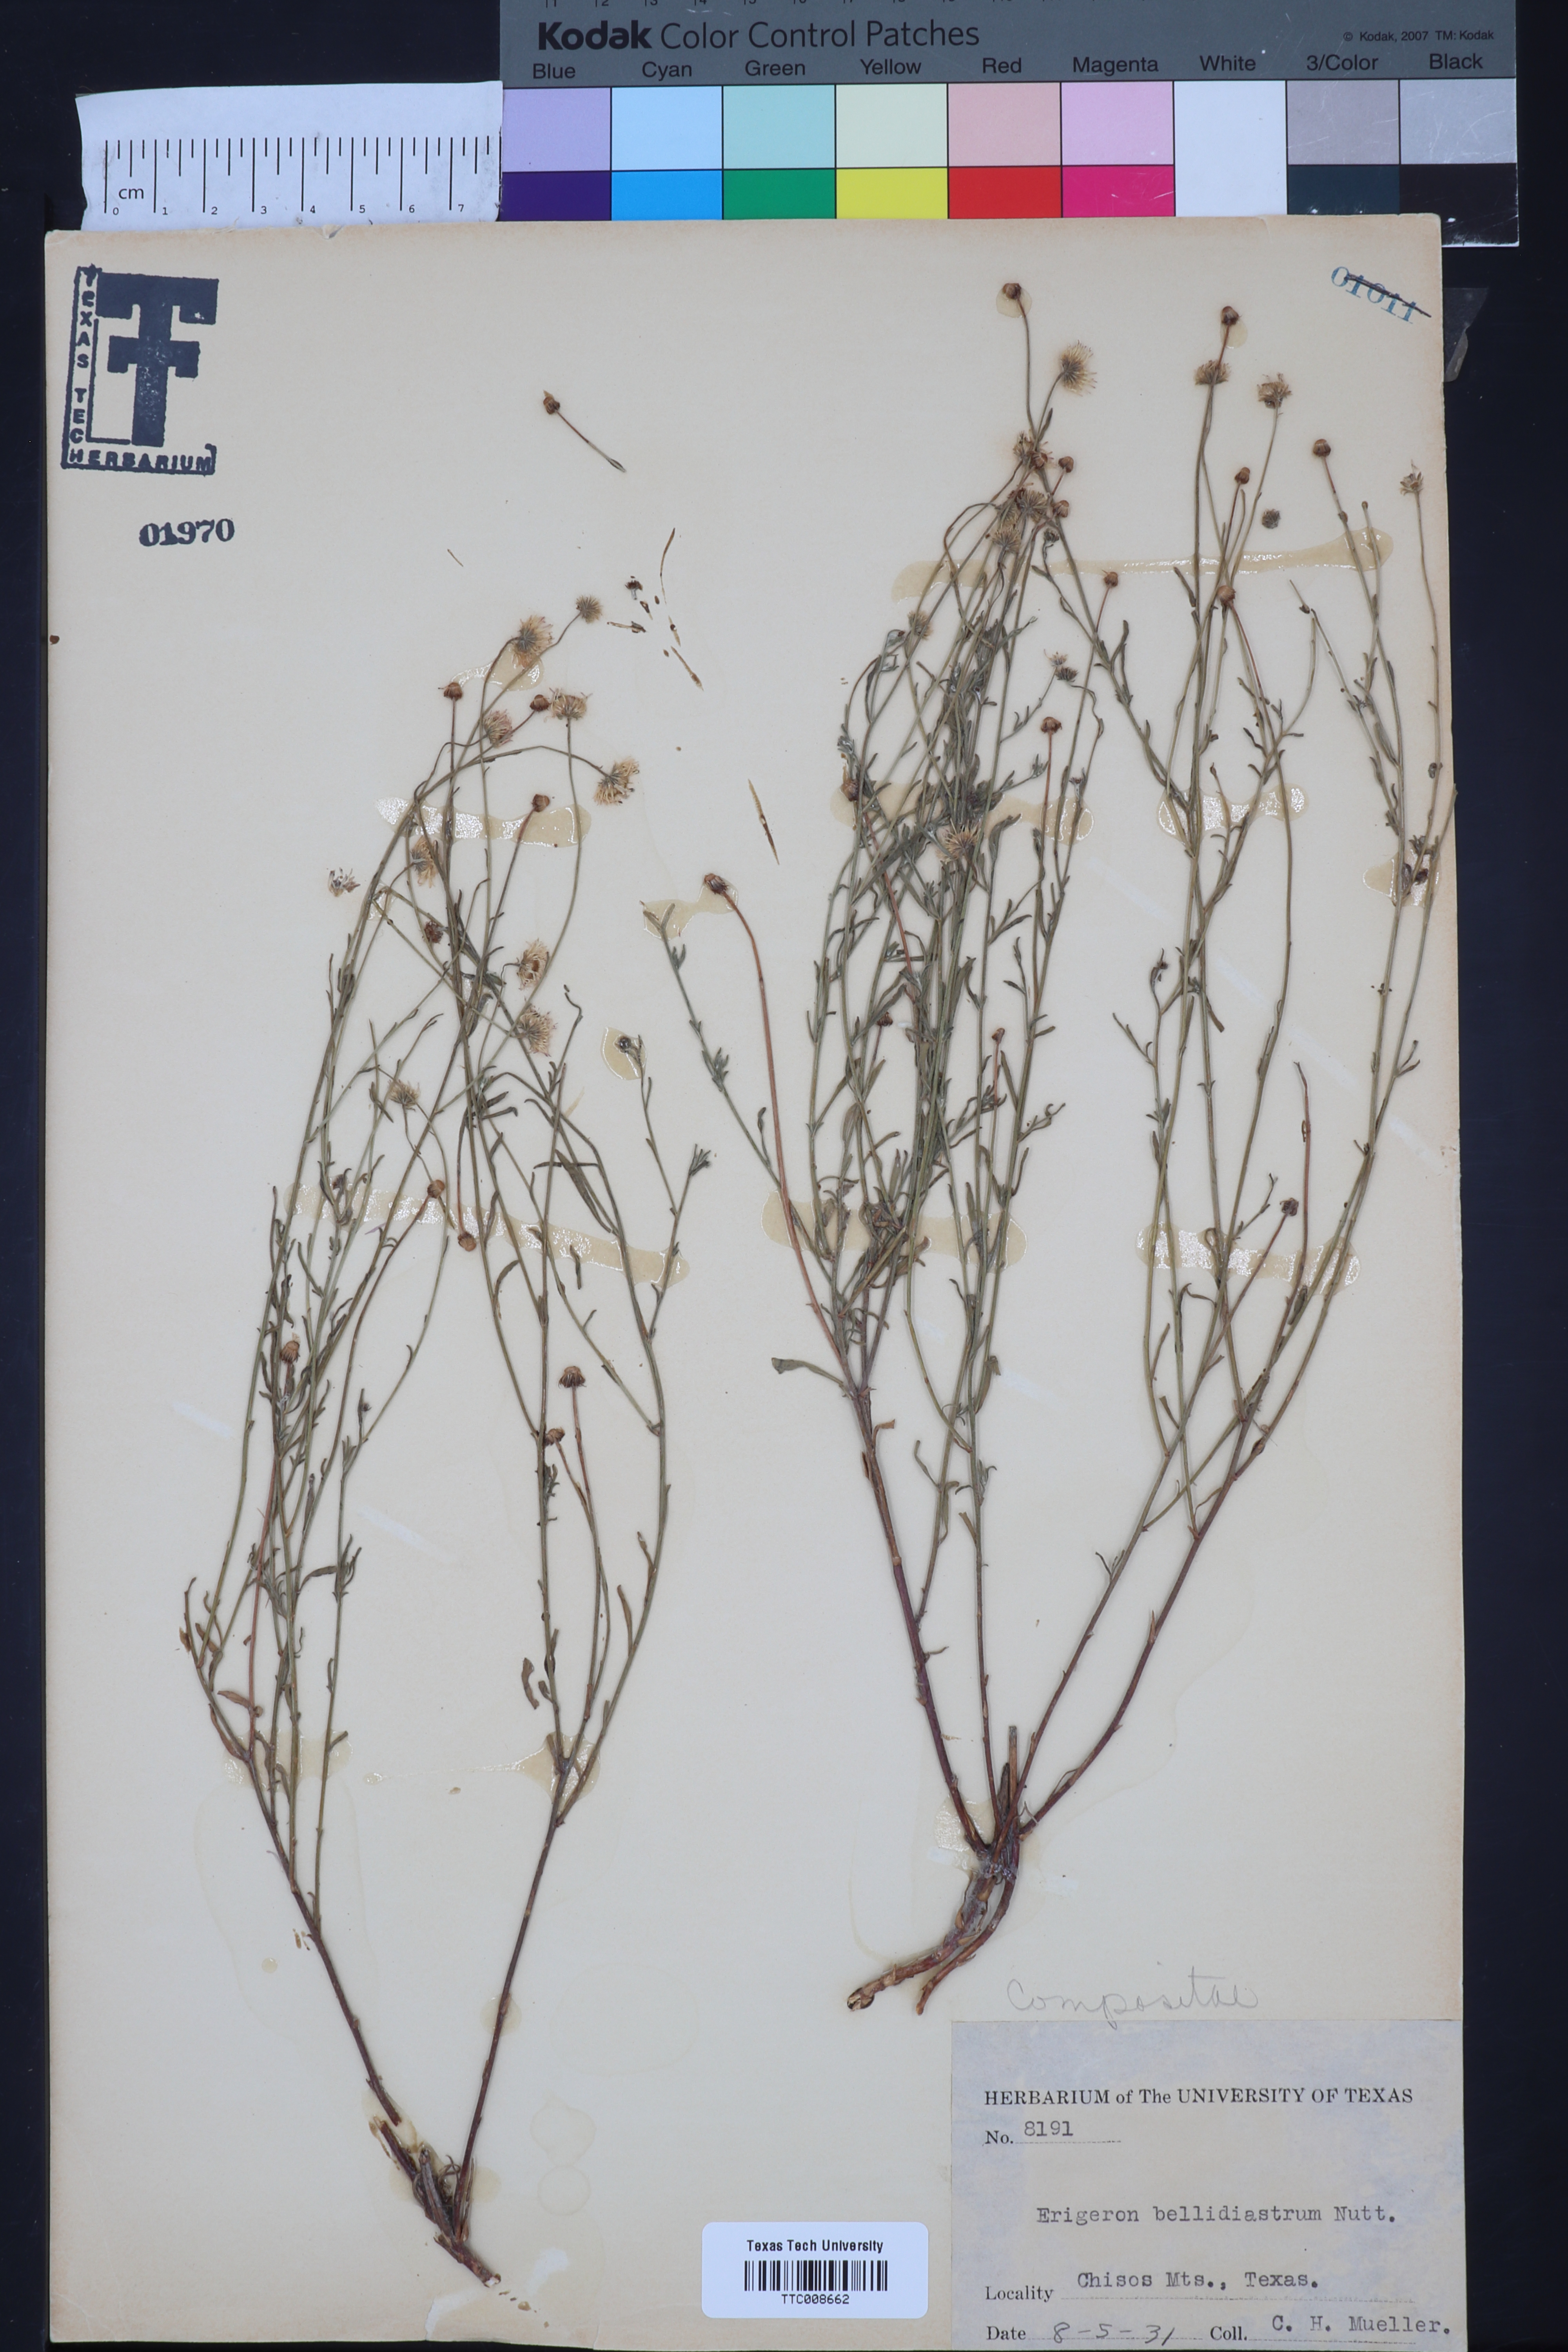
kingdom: Plantae
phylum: Tracheophyta
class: Magnoliopsida
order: Asterales
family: Asteraceae
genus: Erigeron
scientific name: Erigeron bellidiastrum
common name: Sand fleabane
